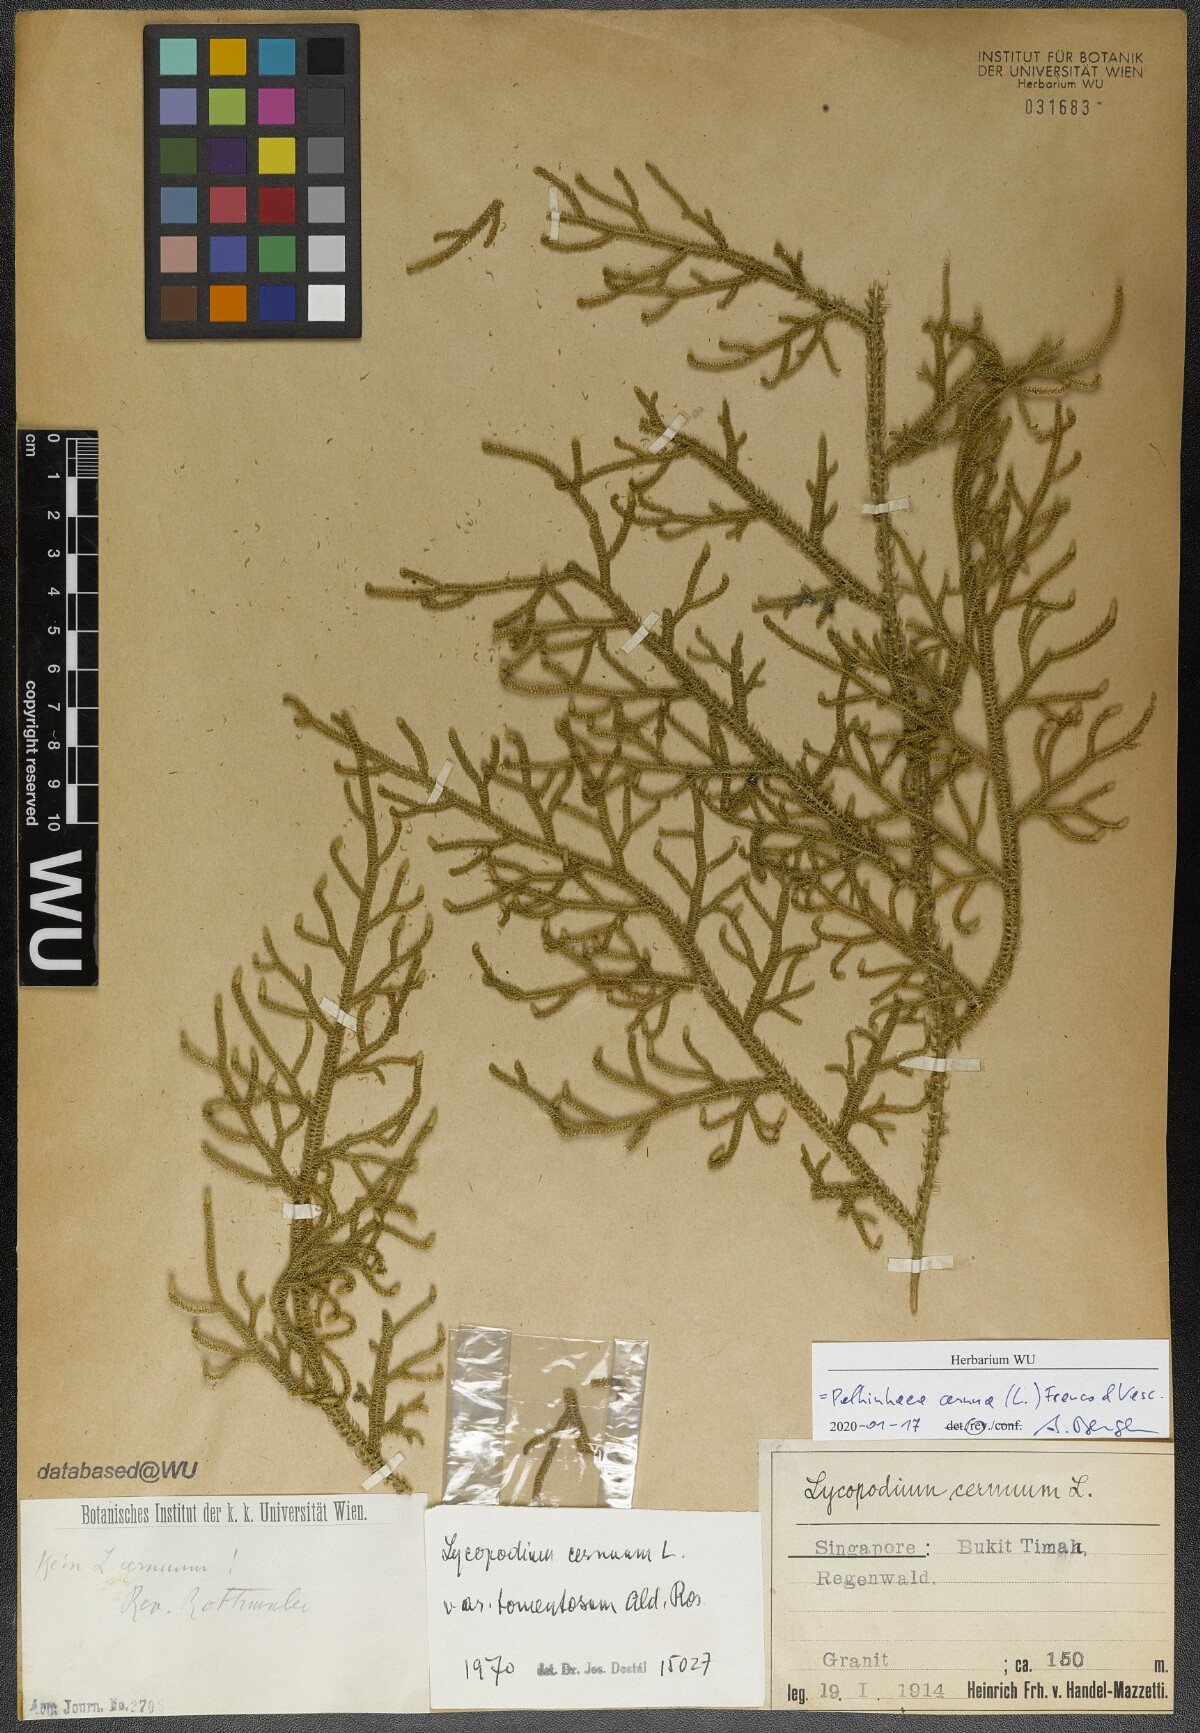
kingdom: Plantae
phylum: Tracheophyta
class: Lycopodiopsida
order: Lycopodiales
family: Lycopodiaceae
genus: Palhinhaea
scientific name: Palhinhaea cernua
